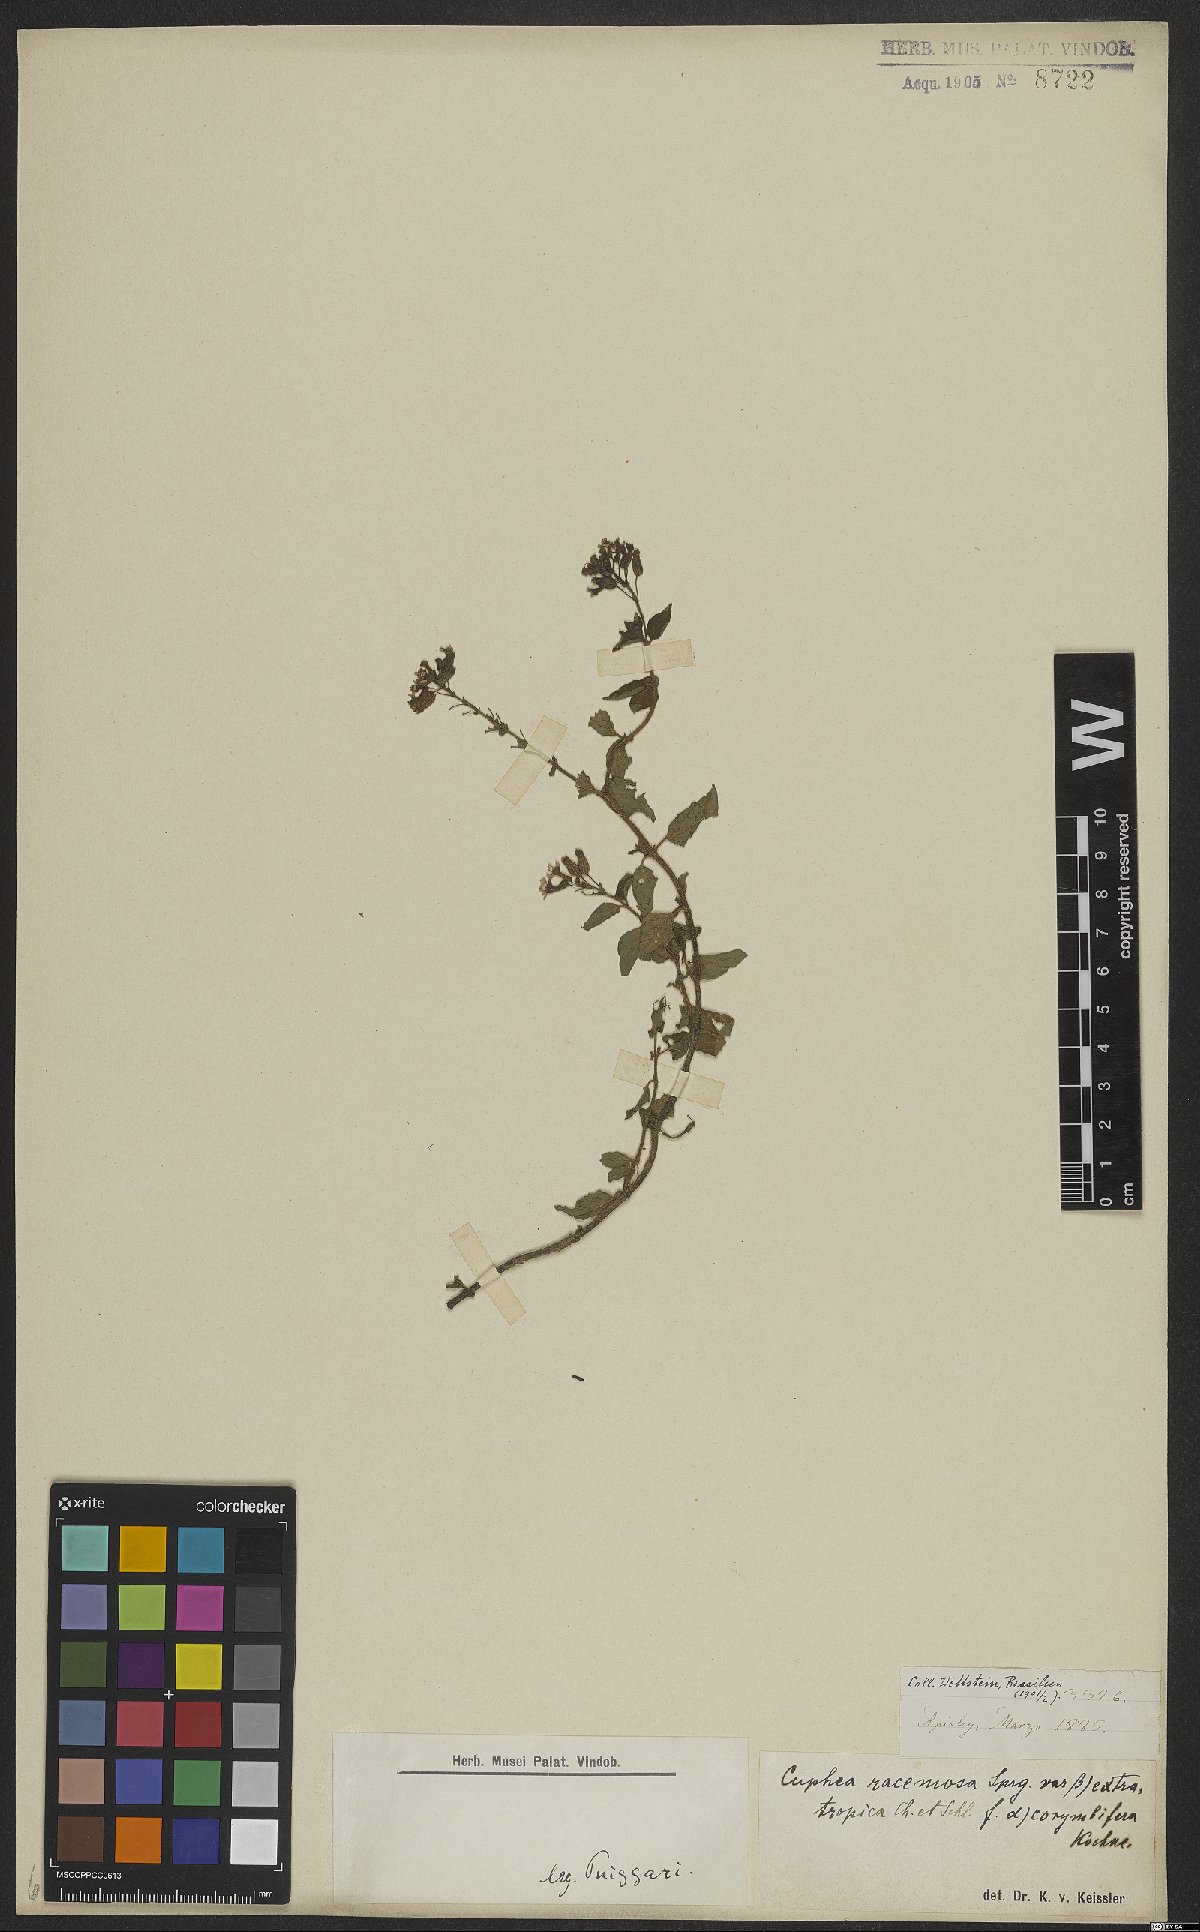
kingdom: Plantae
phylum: Tracheophyta
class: Magnoliopsida
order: Myrtales
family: Lythraceae
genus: Cuphea
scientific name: Cuphea racemosa
